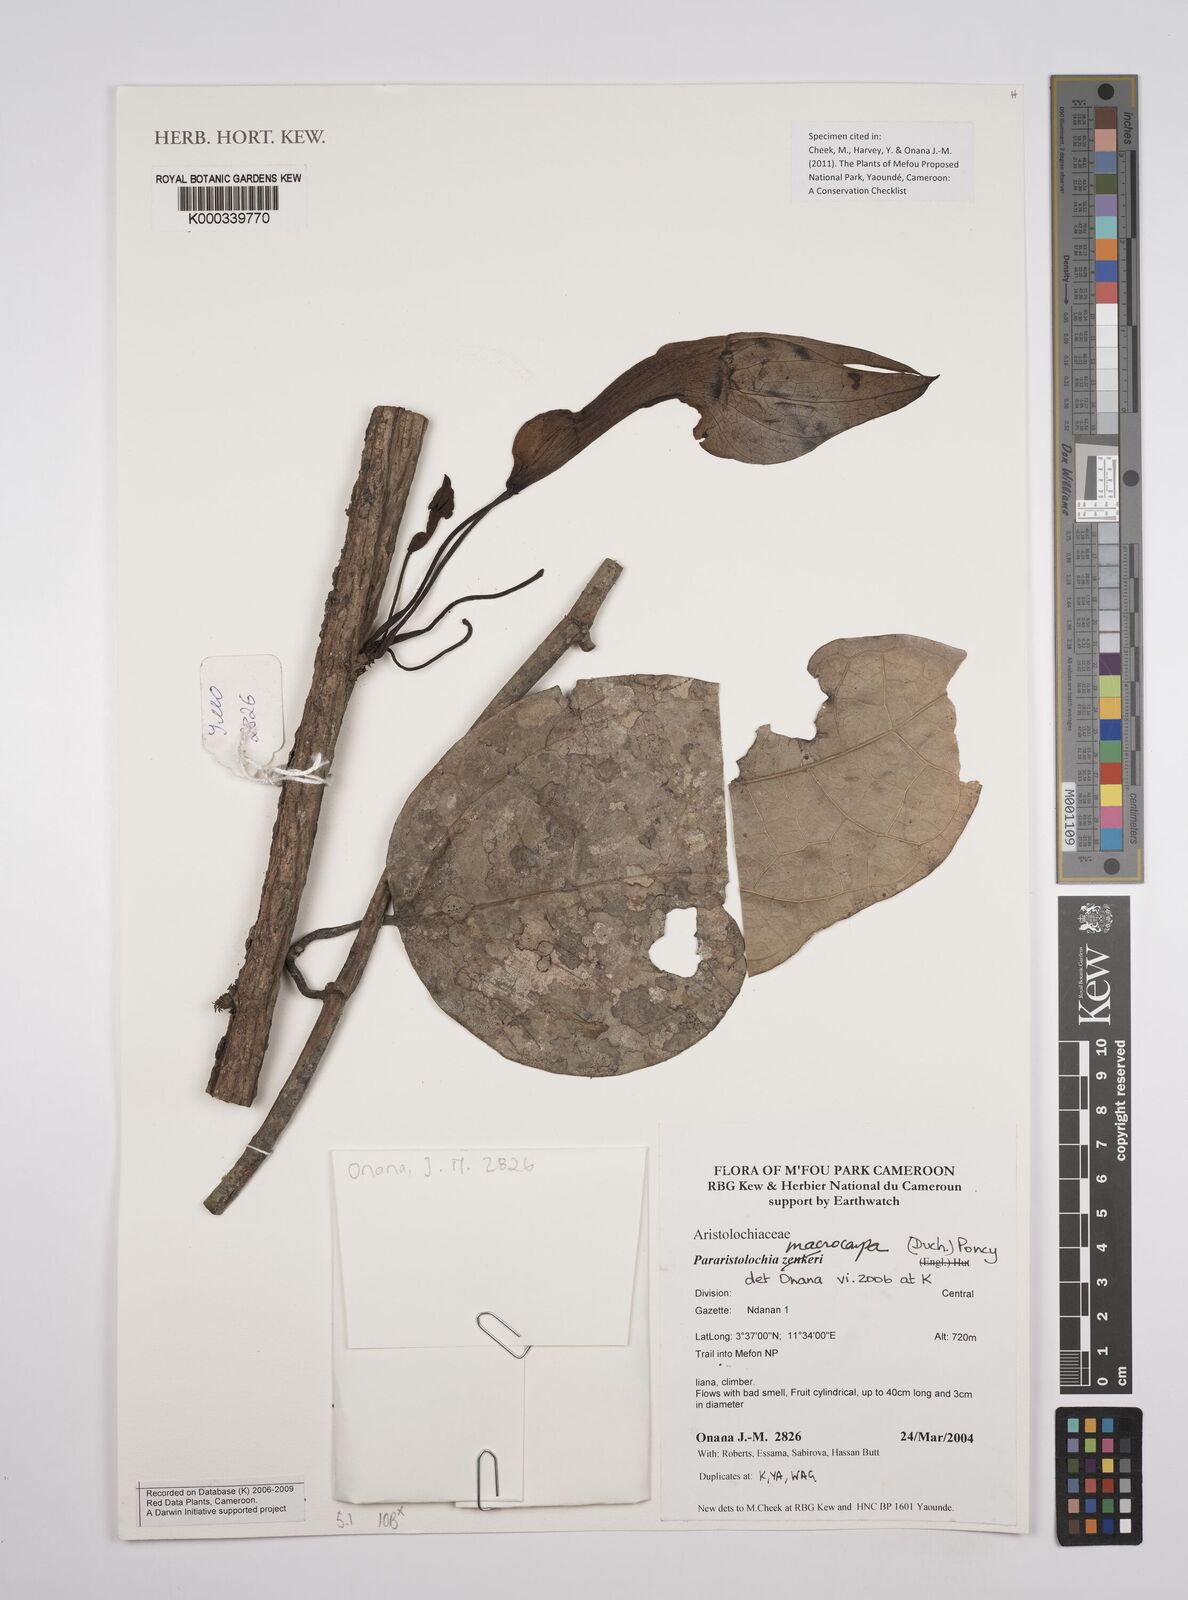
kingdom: Plantae
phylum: Tracheophyta
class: Magnoliopsida
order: Piperales
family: Aristolochiaceae
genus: Aristolochia
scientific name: Aristolochia macrocarpa
